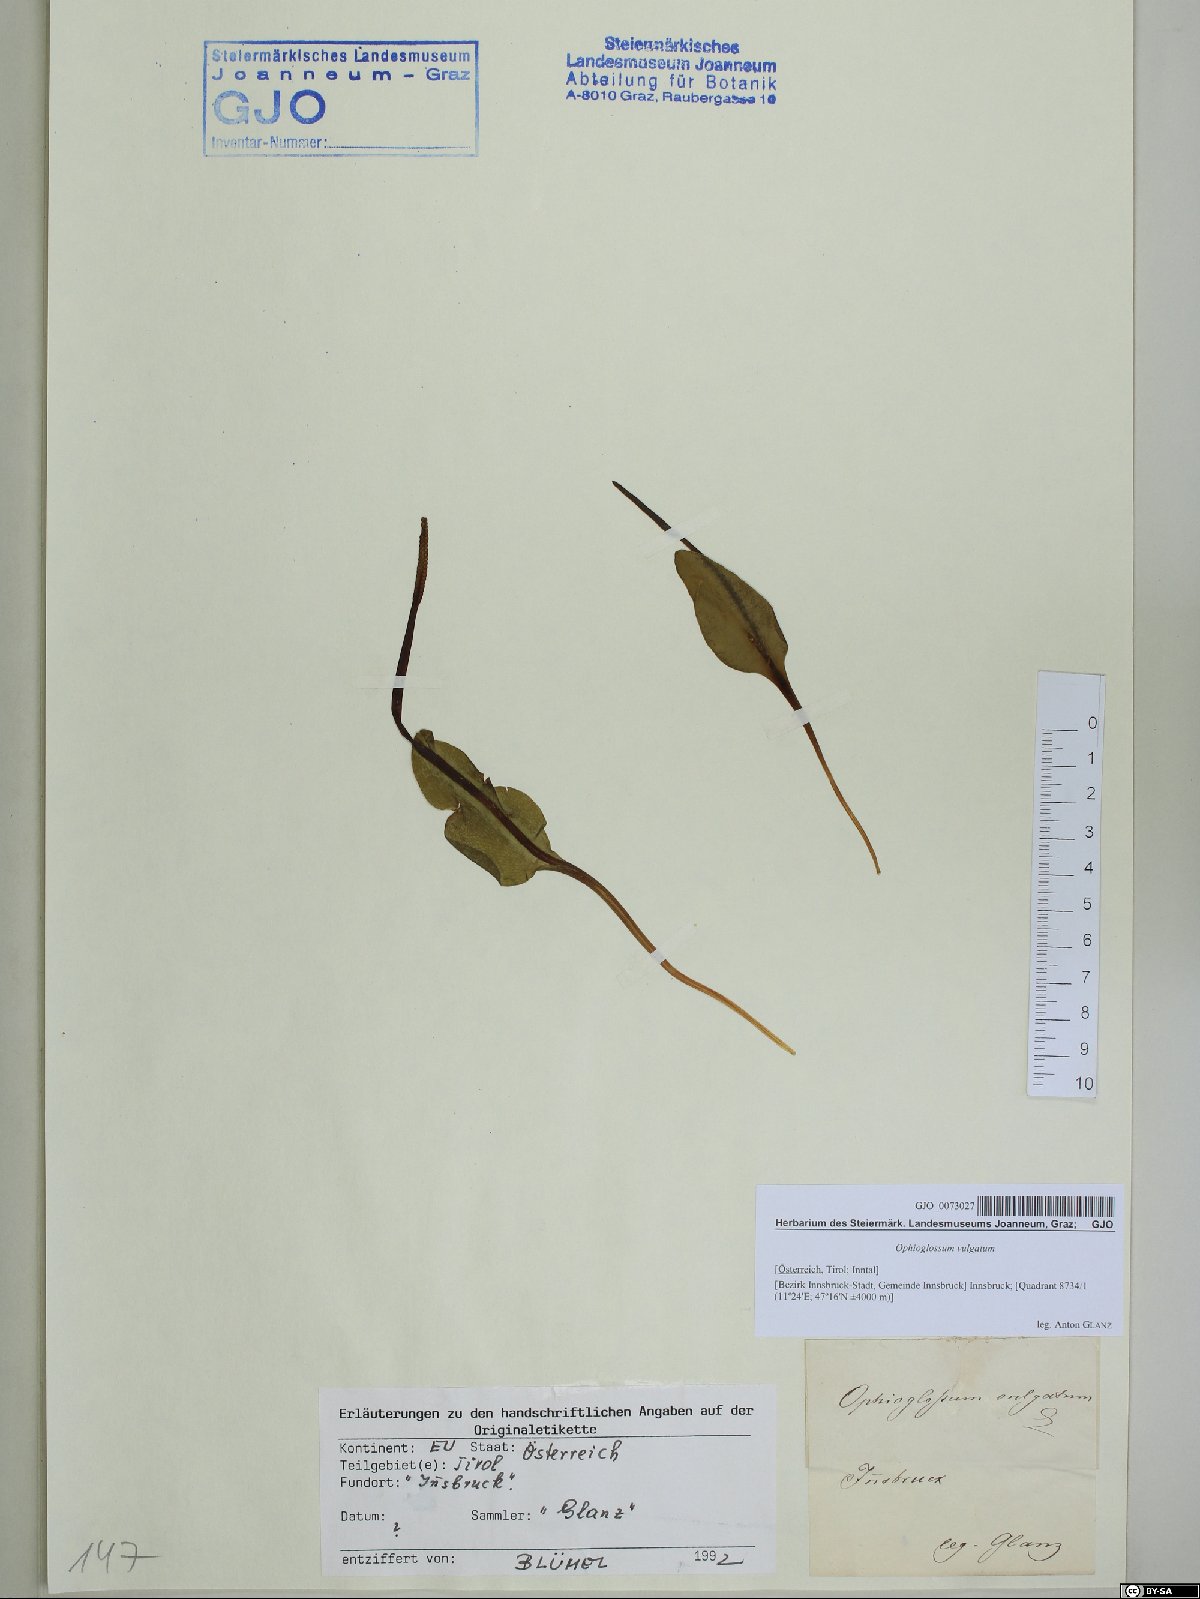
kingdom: Plantae
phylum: Tracheophyta
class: Polypodiopsida
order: Ophioglossales
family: Ophioglossaceae
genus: Ophioglossum
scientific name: Ophioglossum vulgatum
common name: Adder's-tongue
